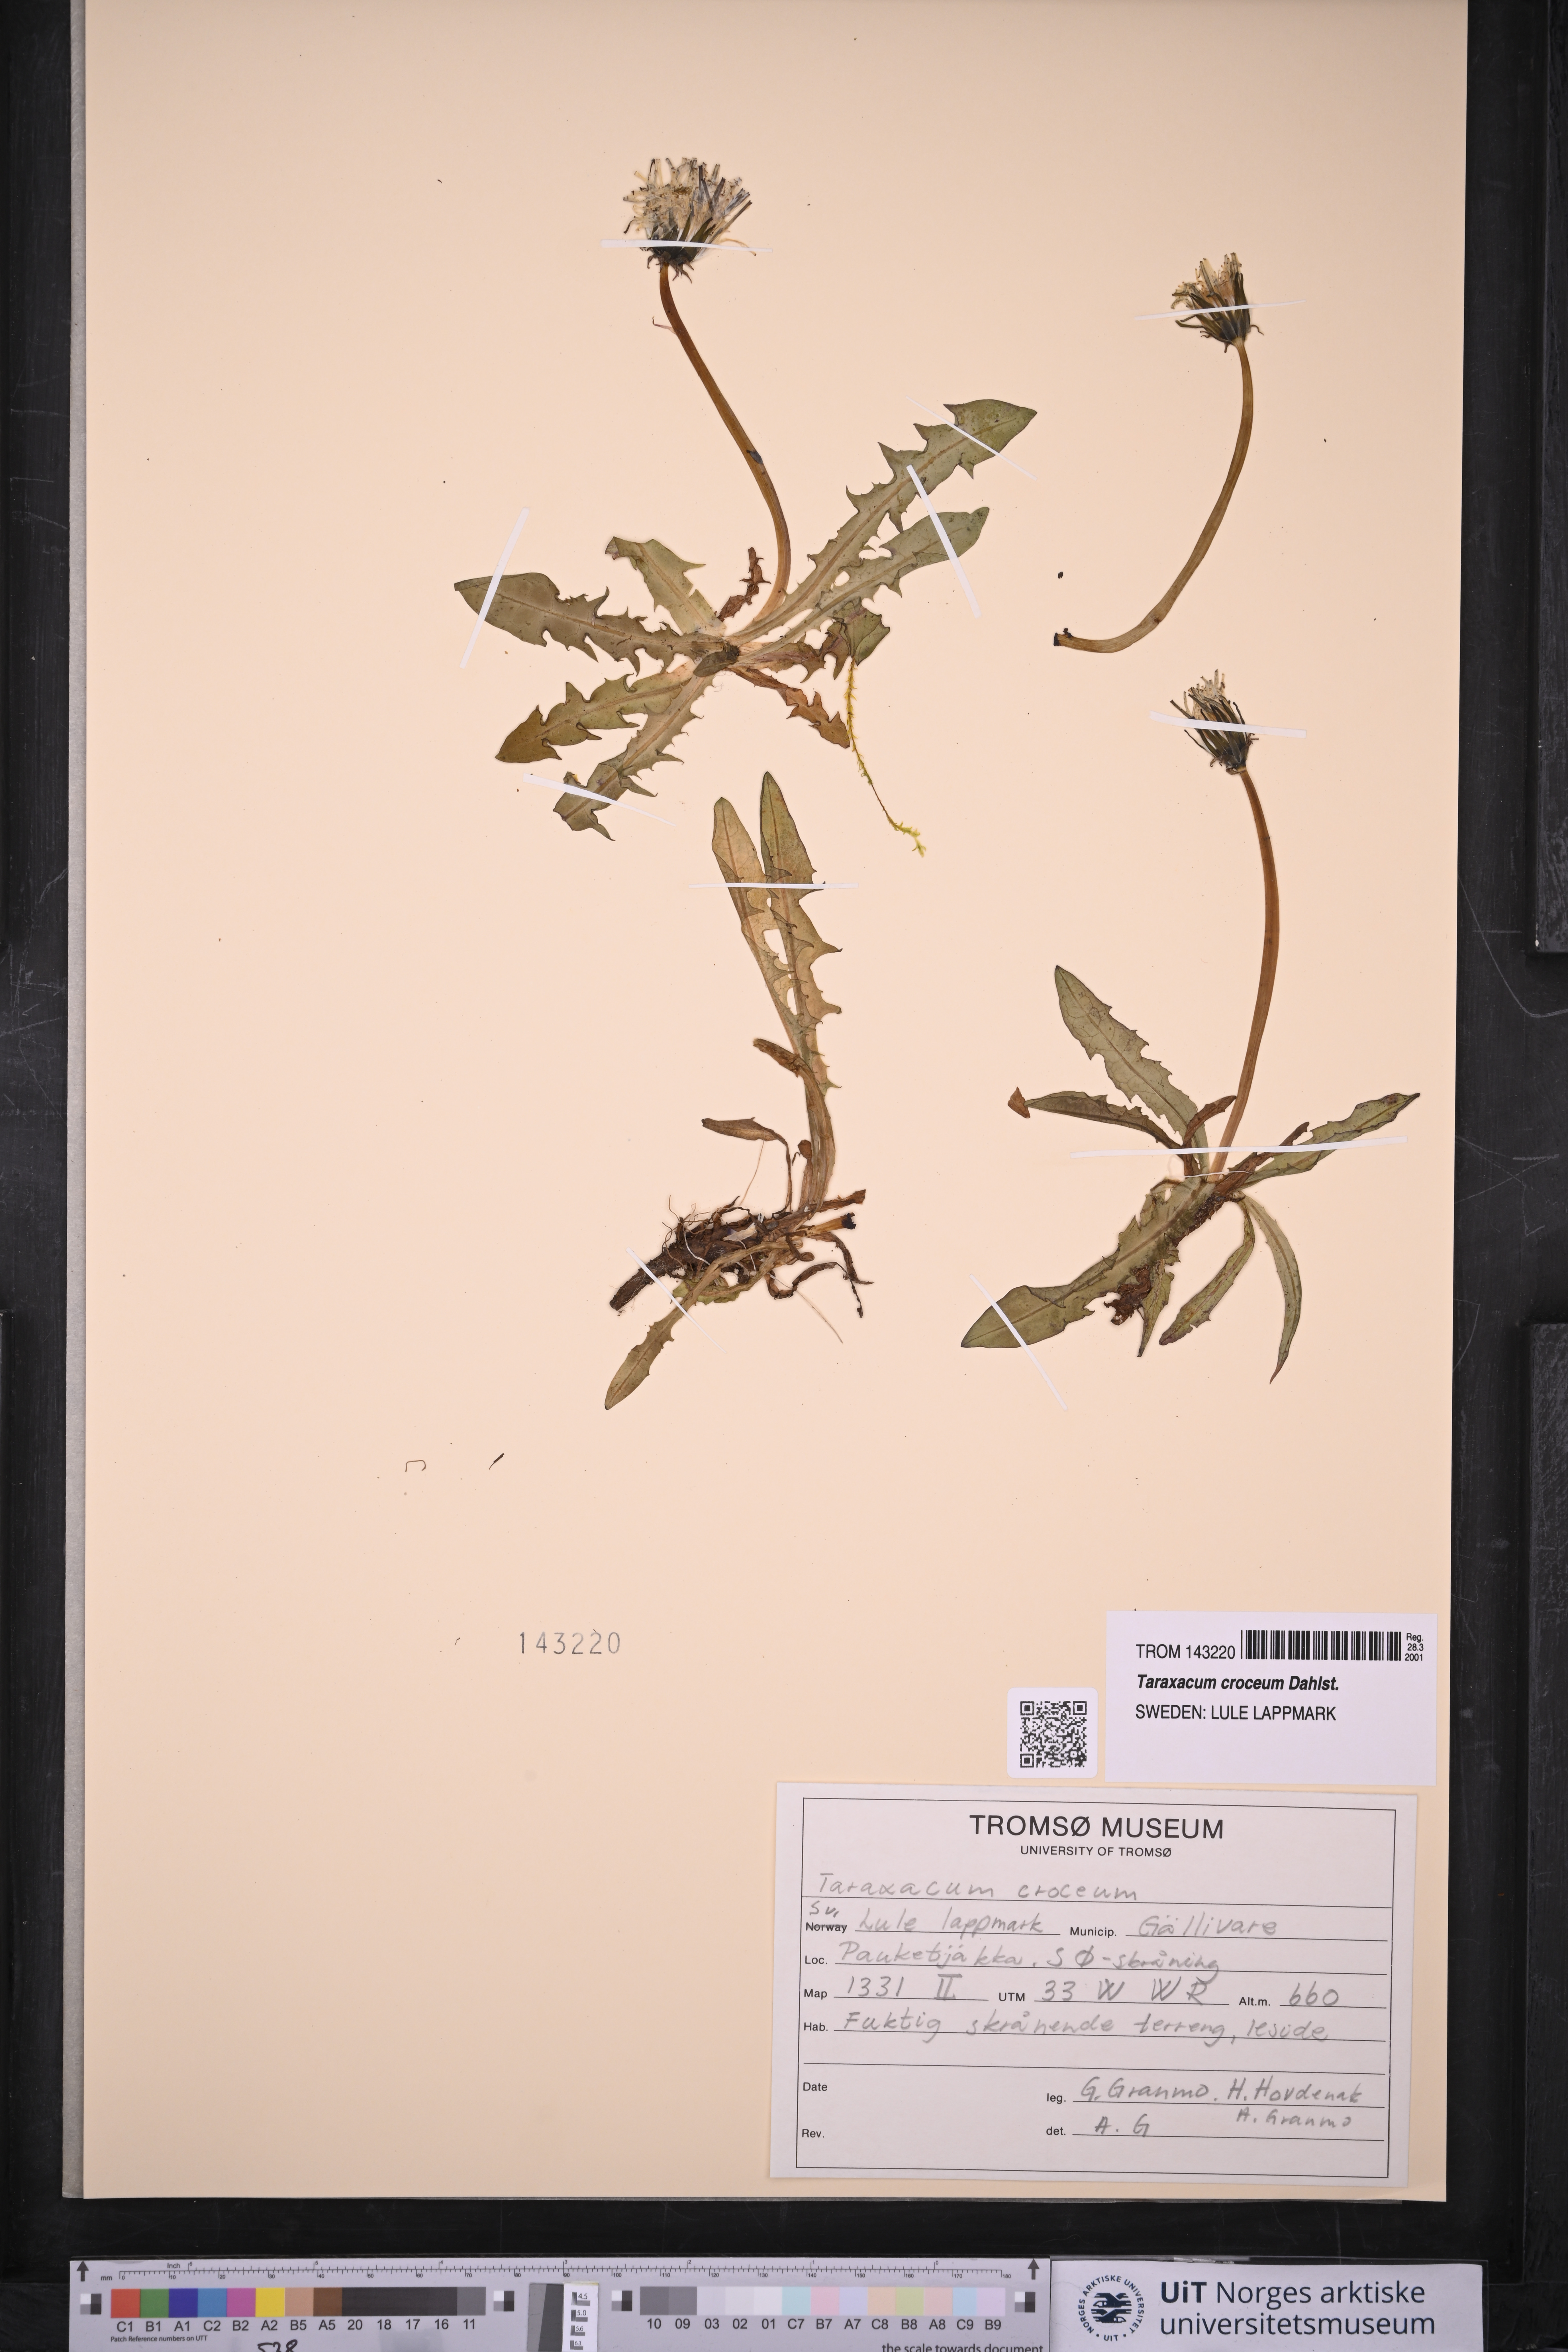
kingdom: Plantae
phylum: Tracheophyta
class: Magnoliopsida
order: Asterales
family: Asteraceae
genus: Taraxacum
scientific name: Taraxacum croceum
